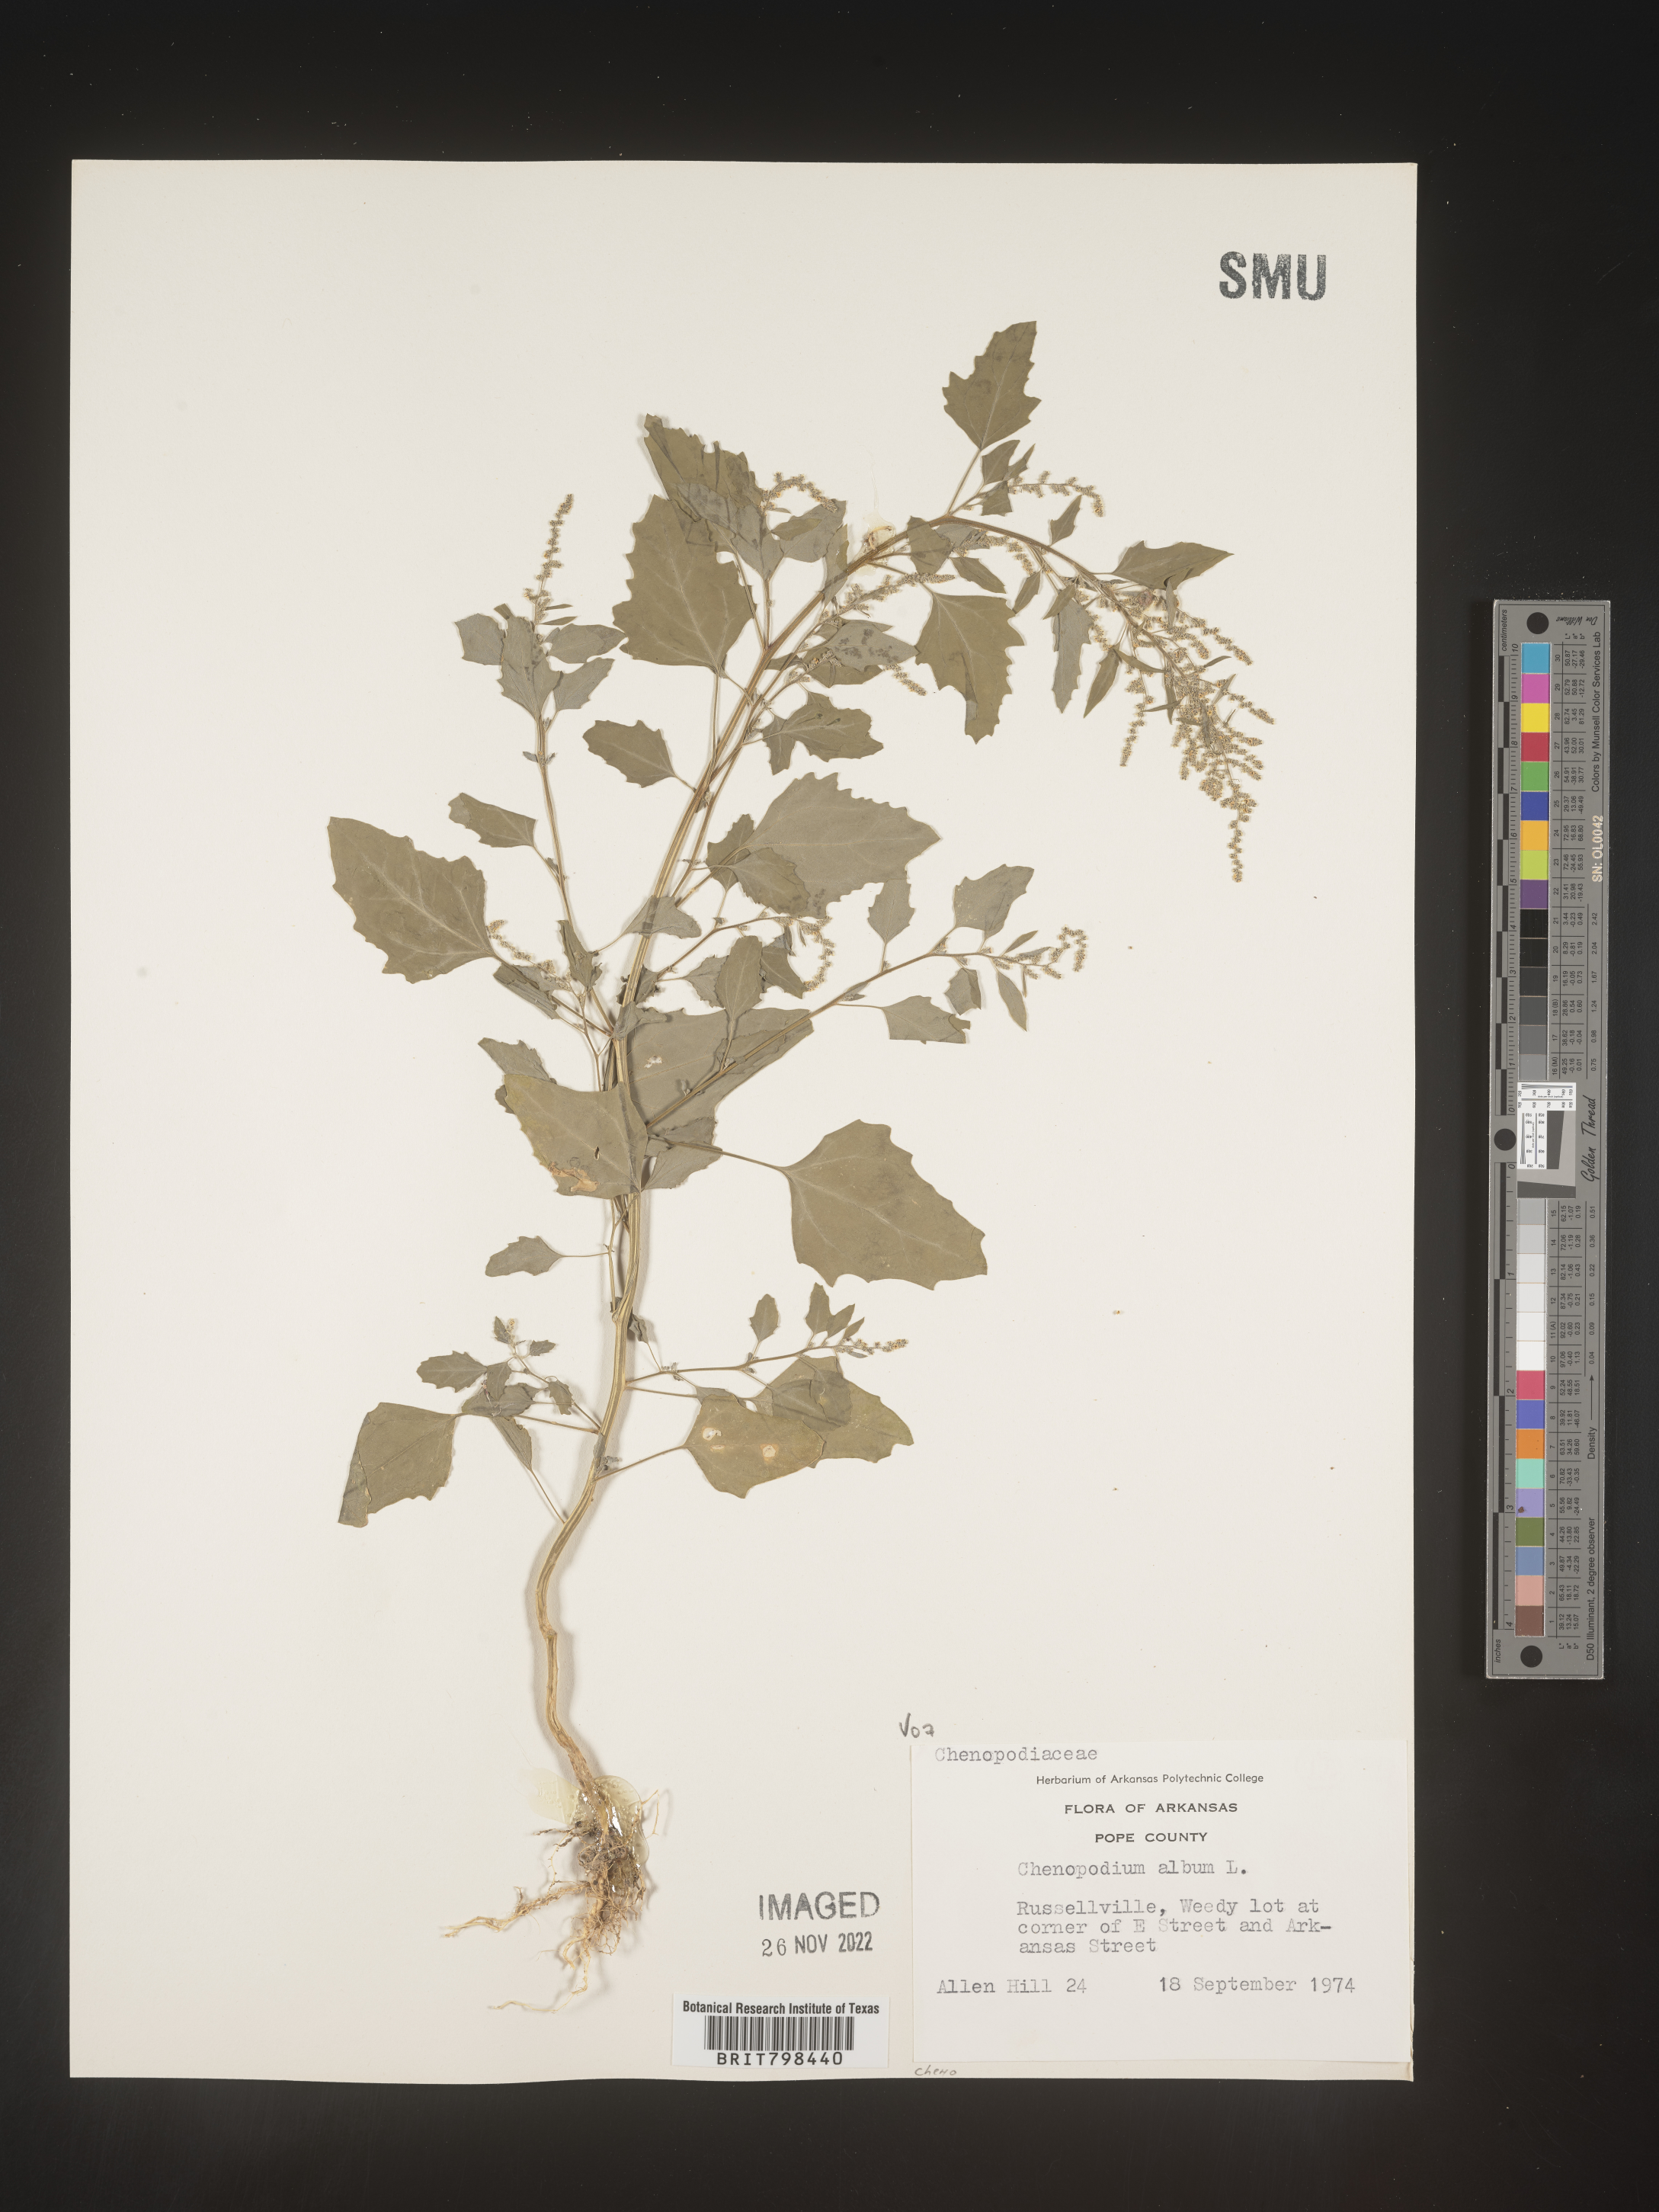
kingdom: Plantae
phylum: Tracheophyta
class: Magnoliopsida
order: Caryophyllales
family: Amaranthaceae
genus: Chenopodium
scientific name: Chenopodium album
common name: Fat-hen
